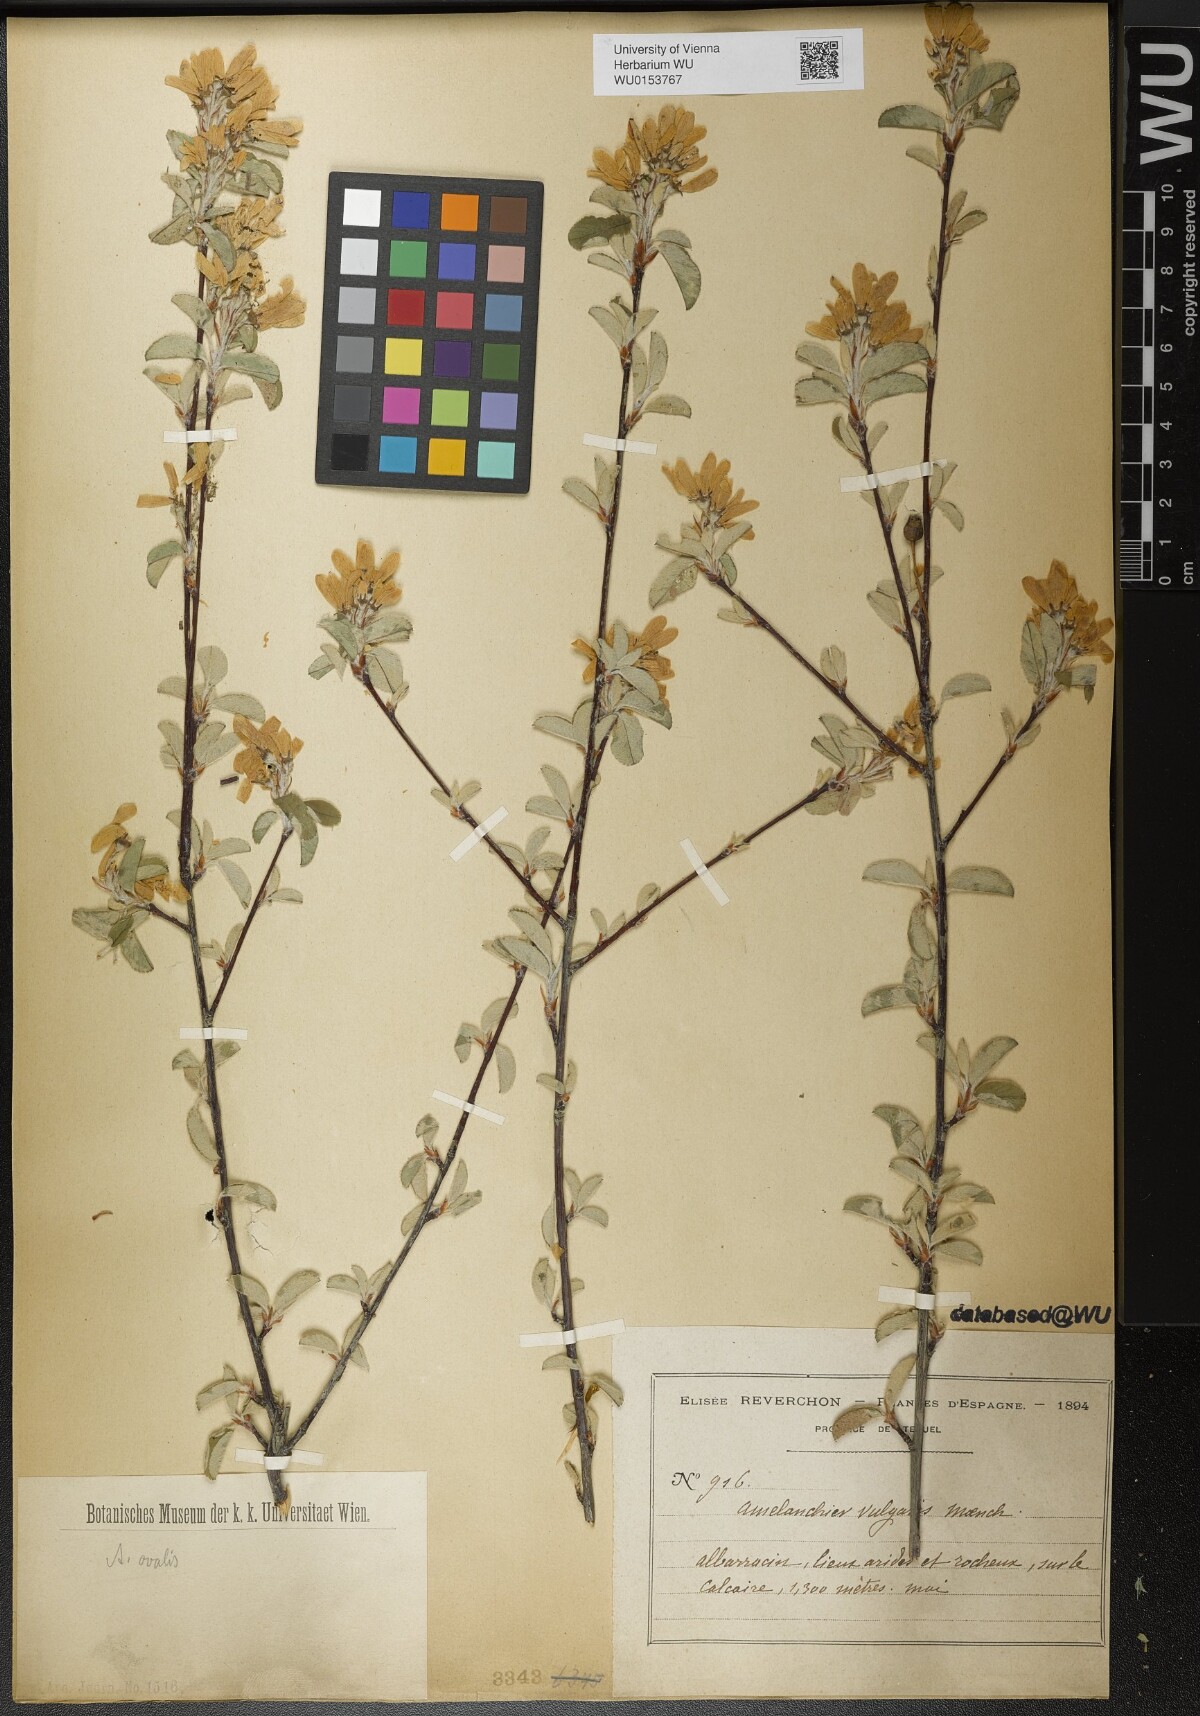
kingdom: Plantae
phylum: Tracheophyta
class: Magnoliopsida
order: Rosales
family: Rosaceae
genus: Amelanchier
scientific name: Amelanchier ovalis
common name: Serviceberry
